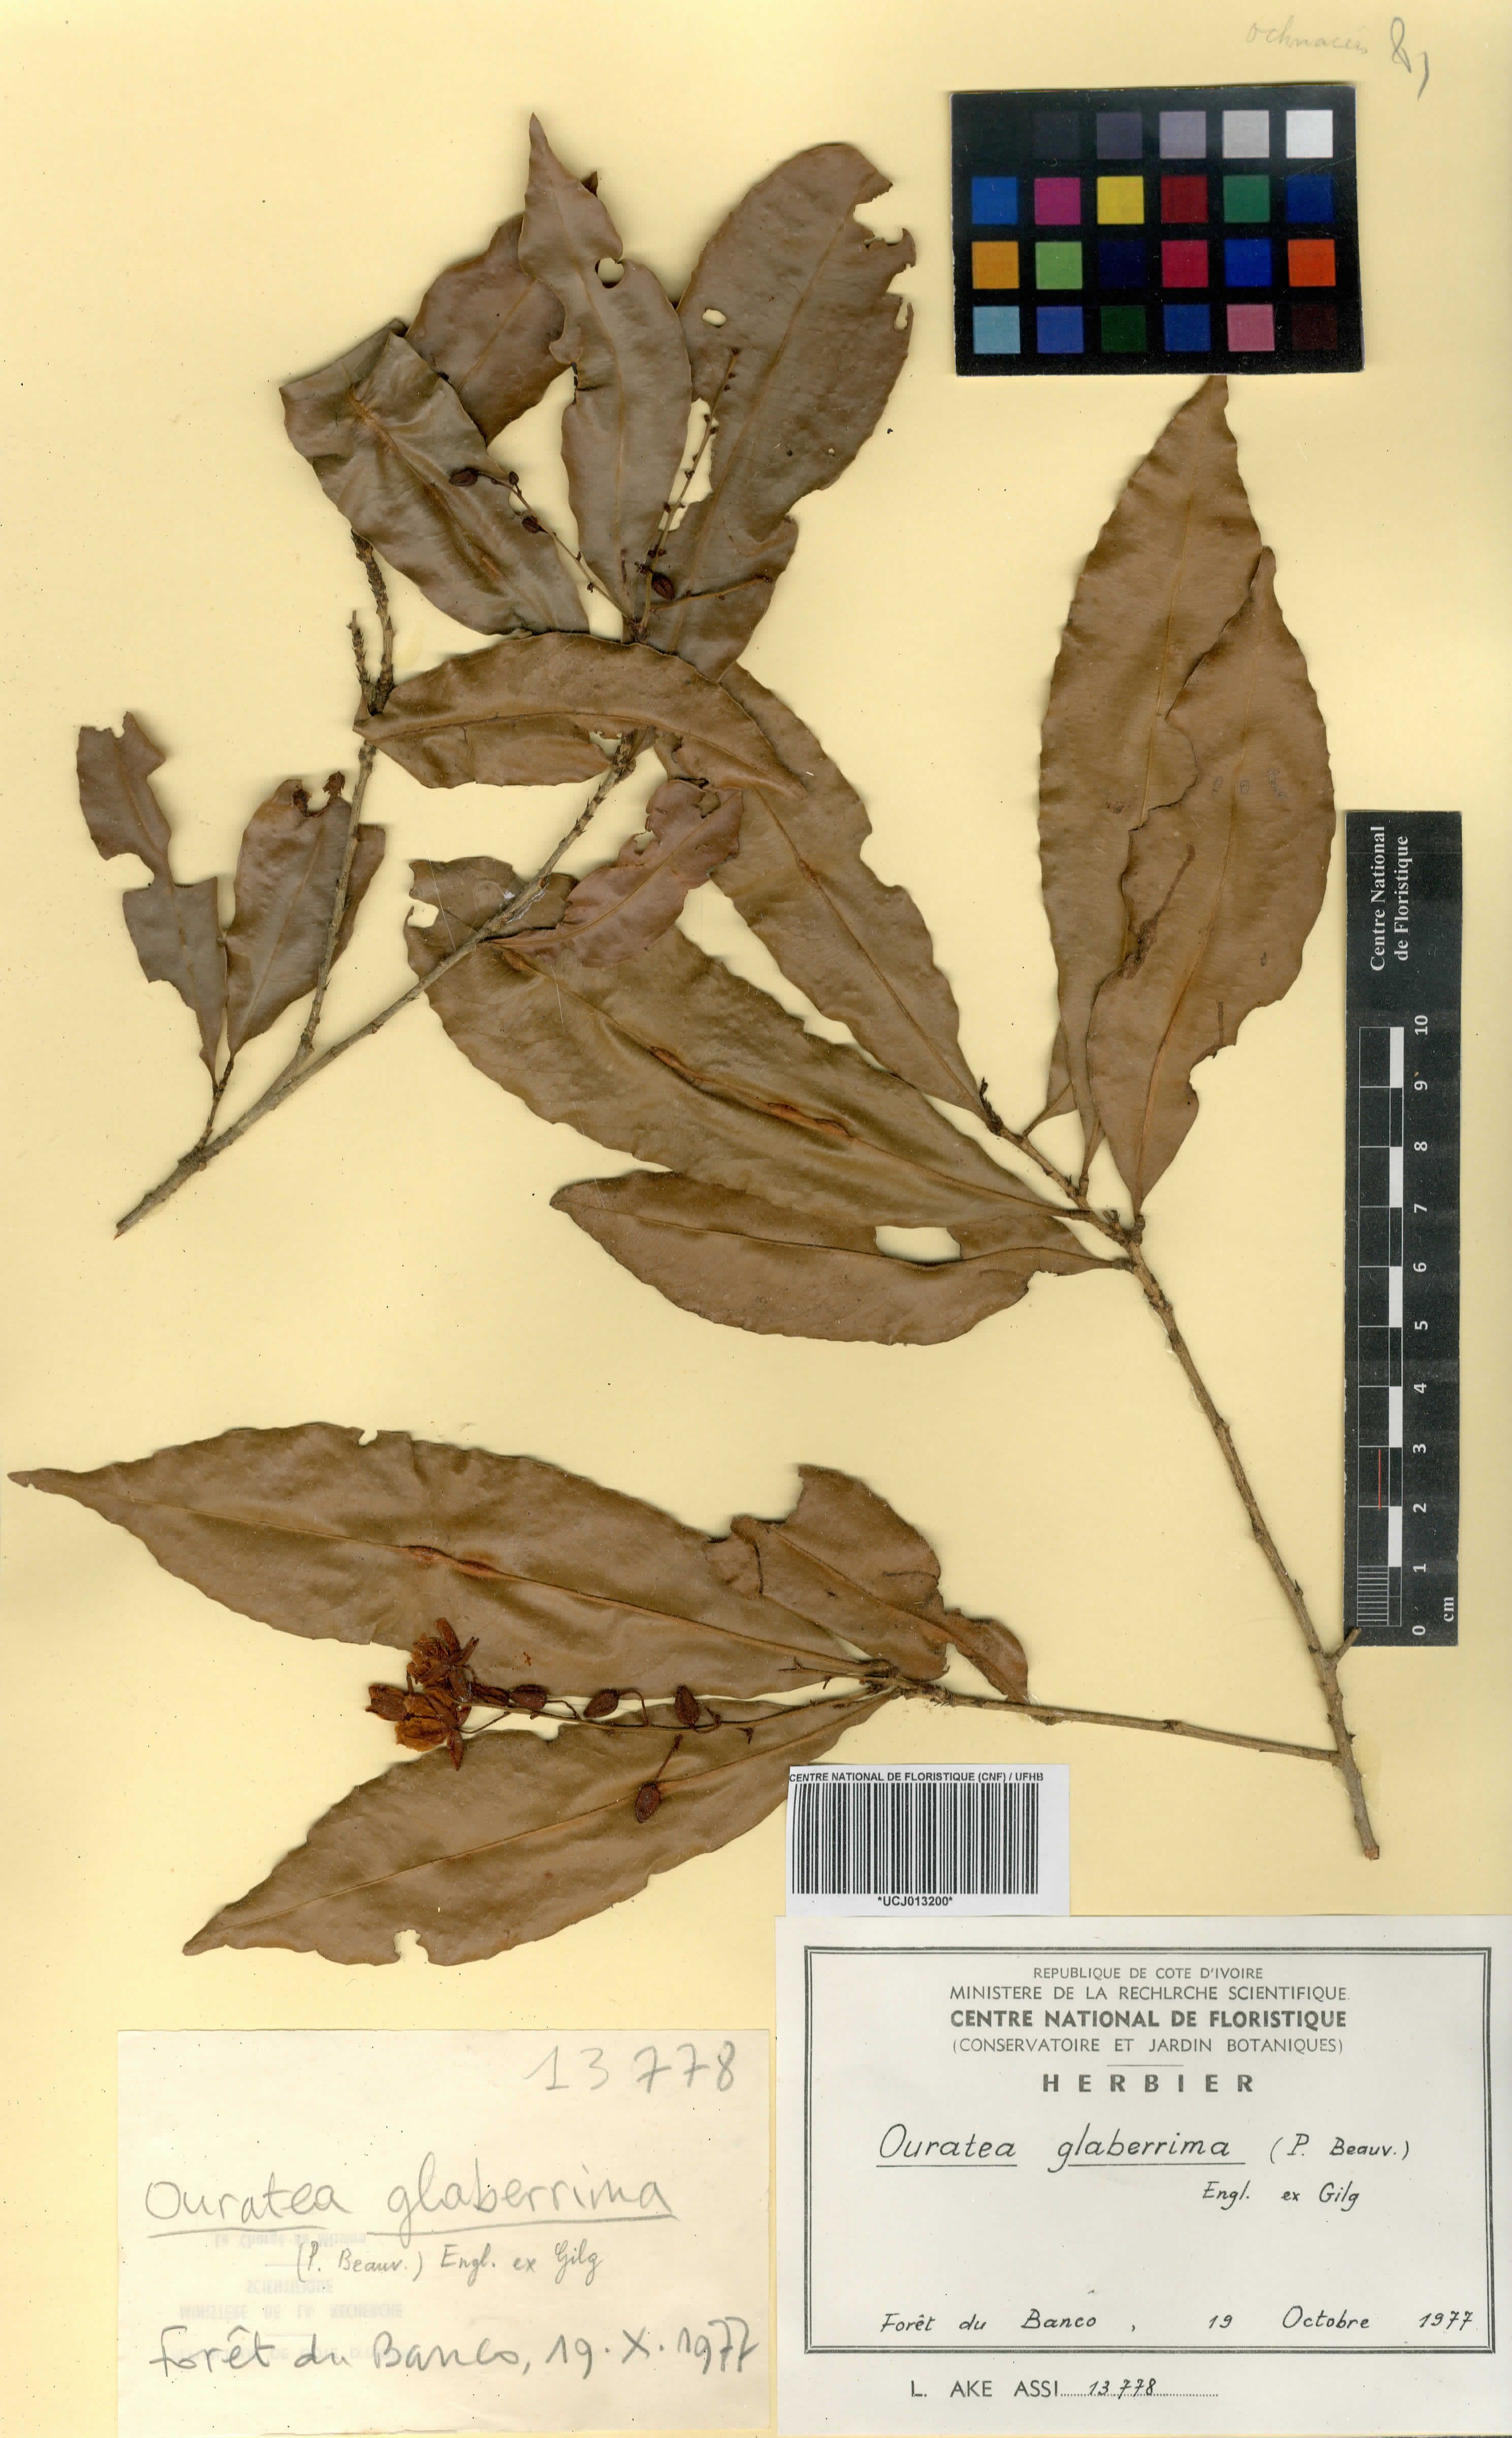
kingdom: Plantae
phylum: Tracheophyta
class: Magnoliopsida
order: Malpighiales
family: Ochnaceae
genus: Campylospermum
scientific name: Campylospermum glaberrimum
